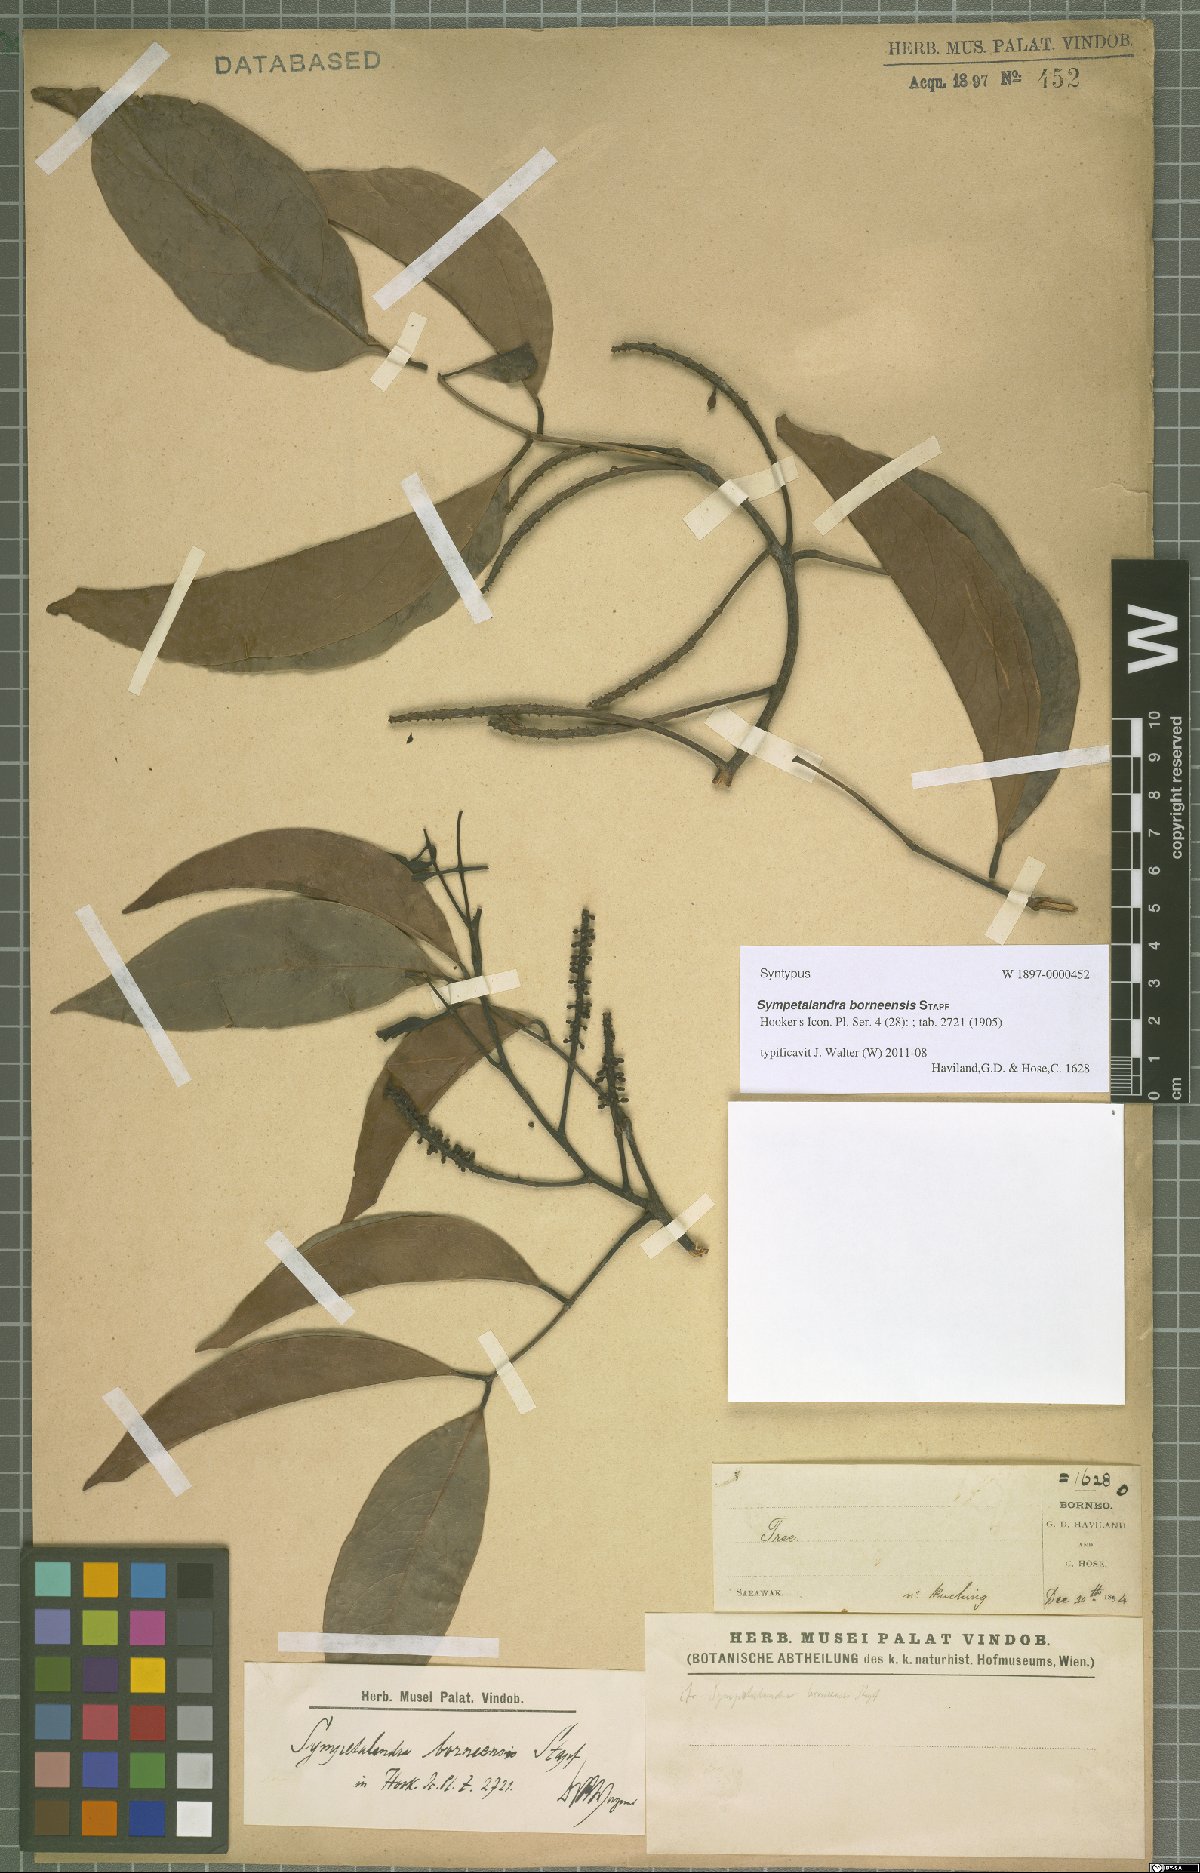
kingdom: Plantae
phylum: Tracheophyta
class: Magnoliopsida
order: Fabales
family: Fabaceae
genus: Sympetalandra
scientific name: Sympetalandra borneensis
